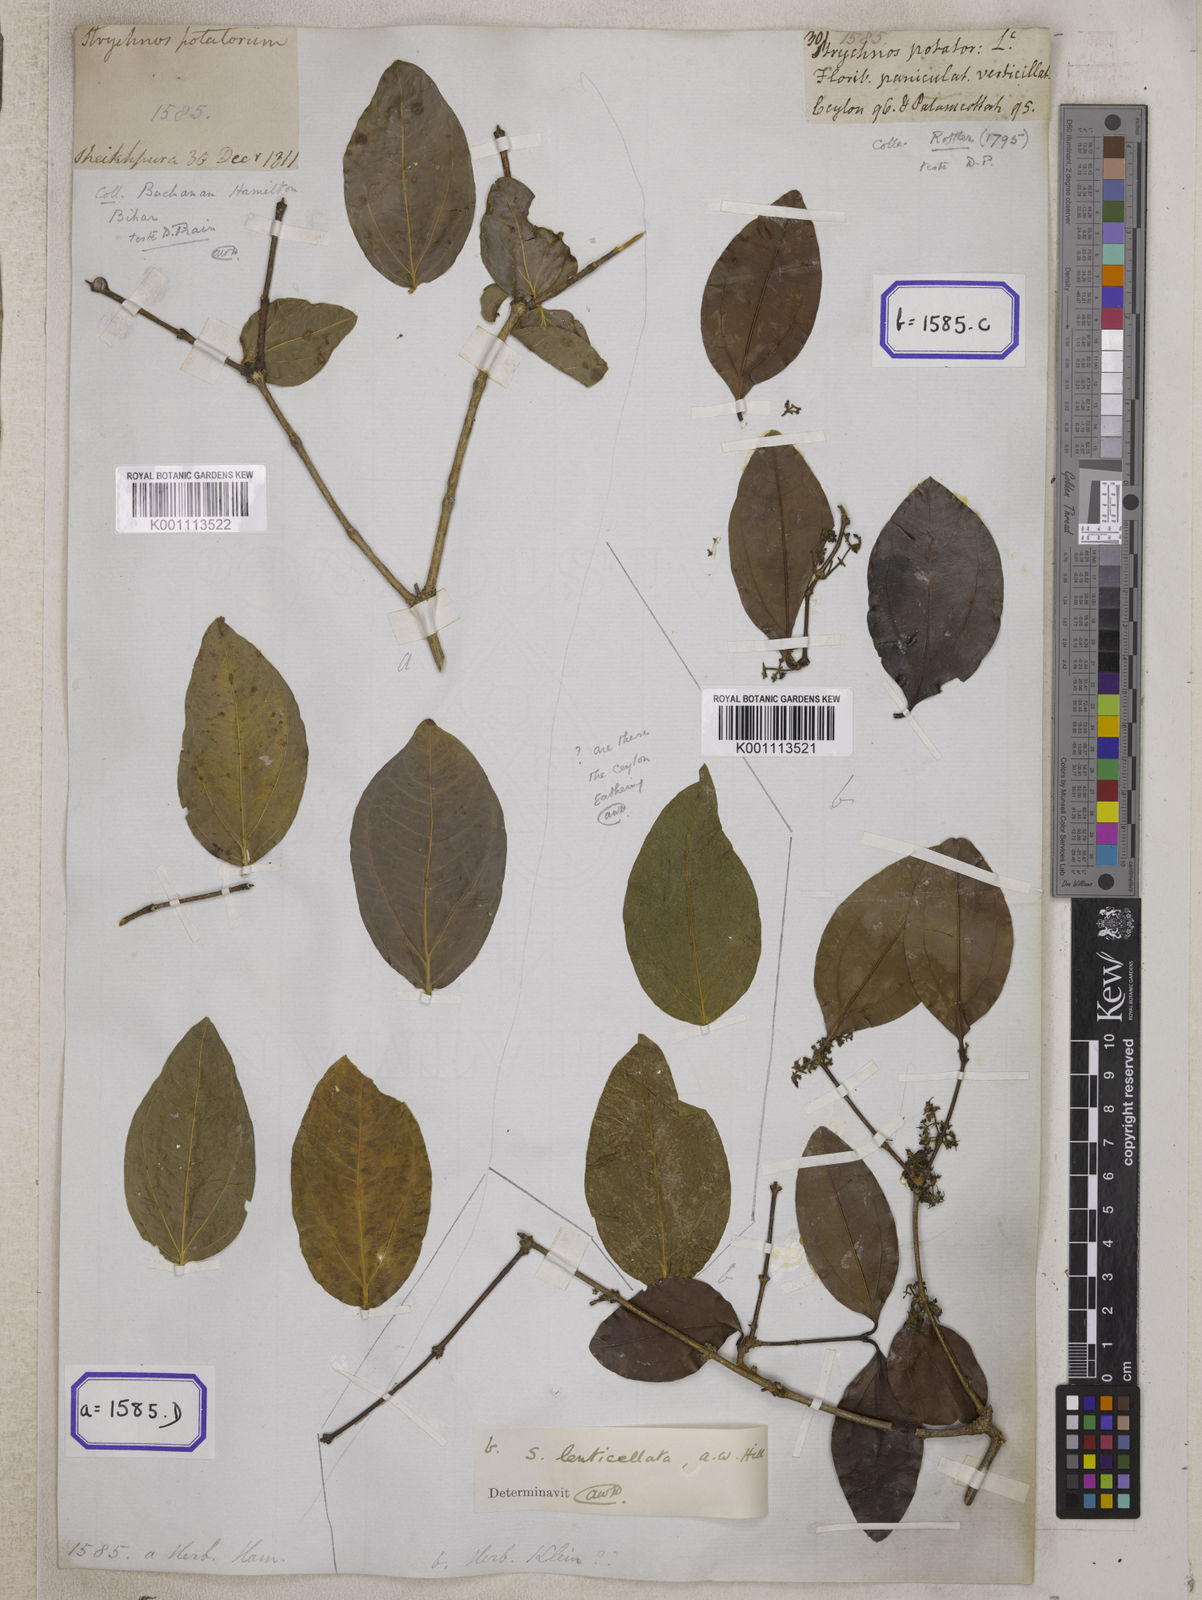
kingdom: Plantae
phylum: Tracheophyta
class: Magnoliopsida
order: Gentianales
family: Loganiaceae
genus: Strychnos
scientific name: Strychnos potatorum
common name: Clearing-nut-tree
